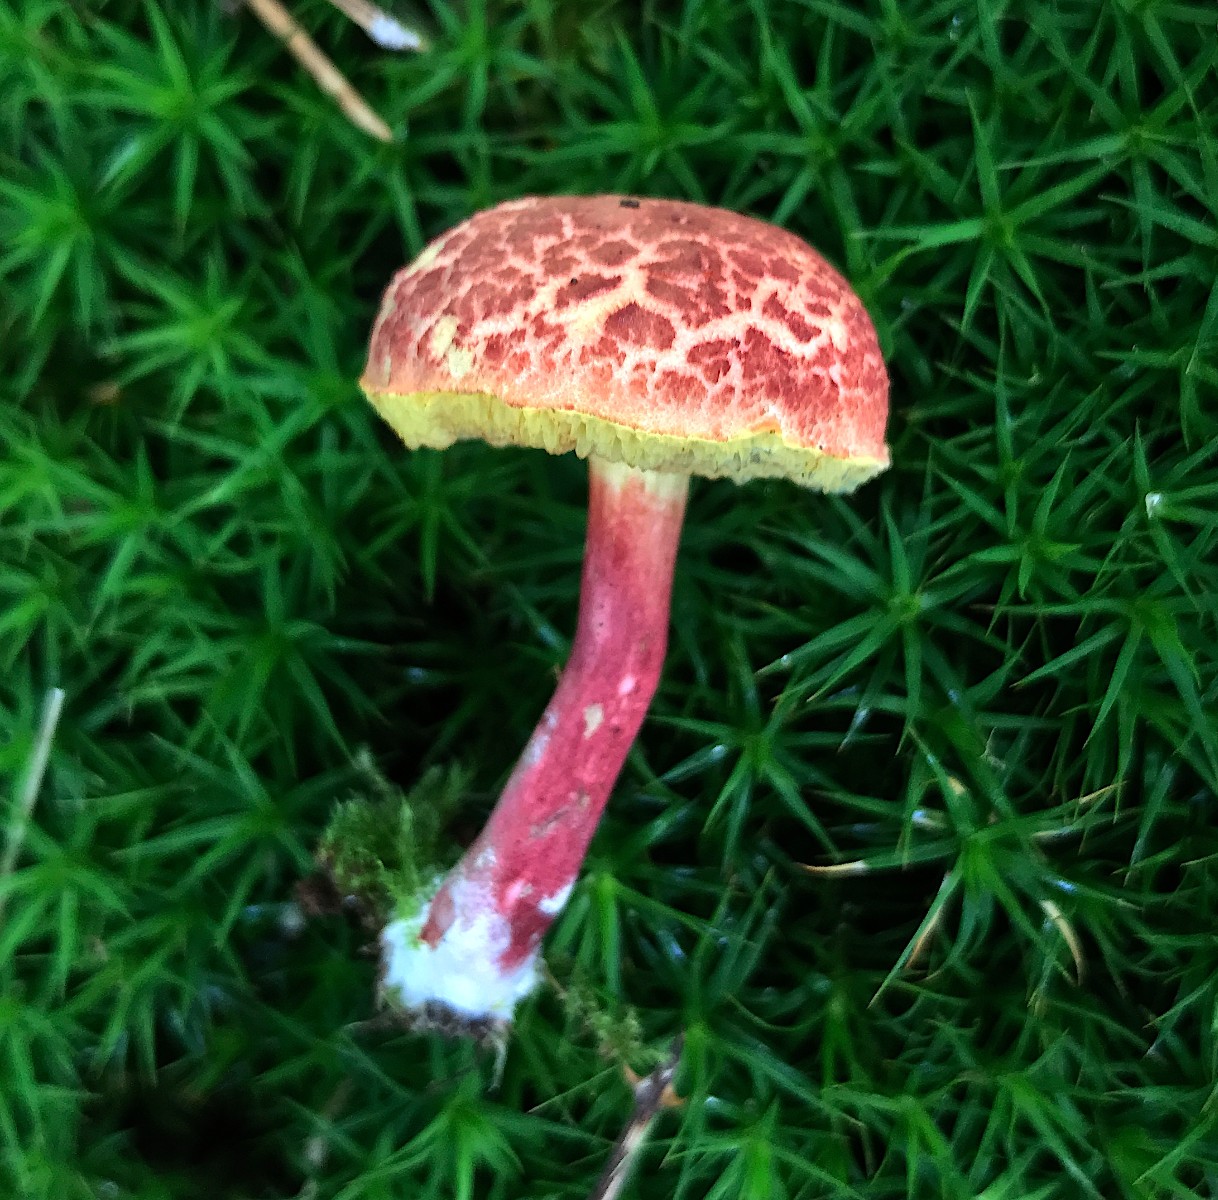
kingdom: Fungi
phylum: Basidiomycota
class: Agaricomycetes
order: Boletales
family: Boletaceae
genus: Xerocomellus
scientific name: Xerocomellus
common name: dværgrørhat
